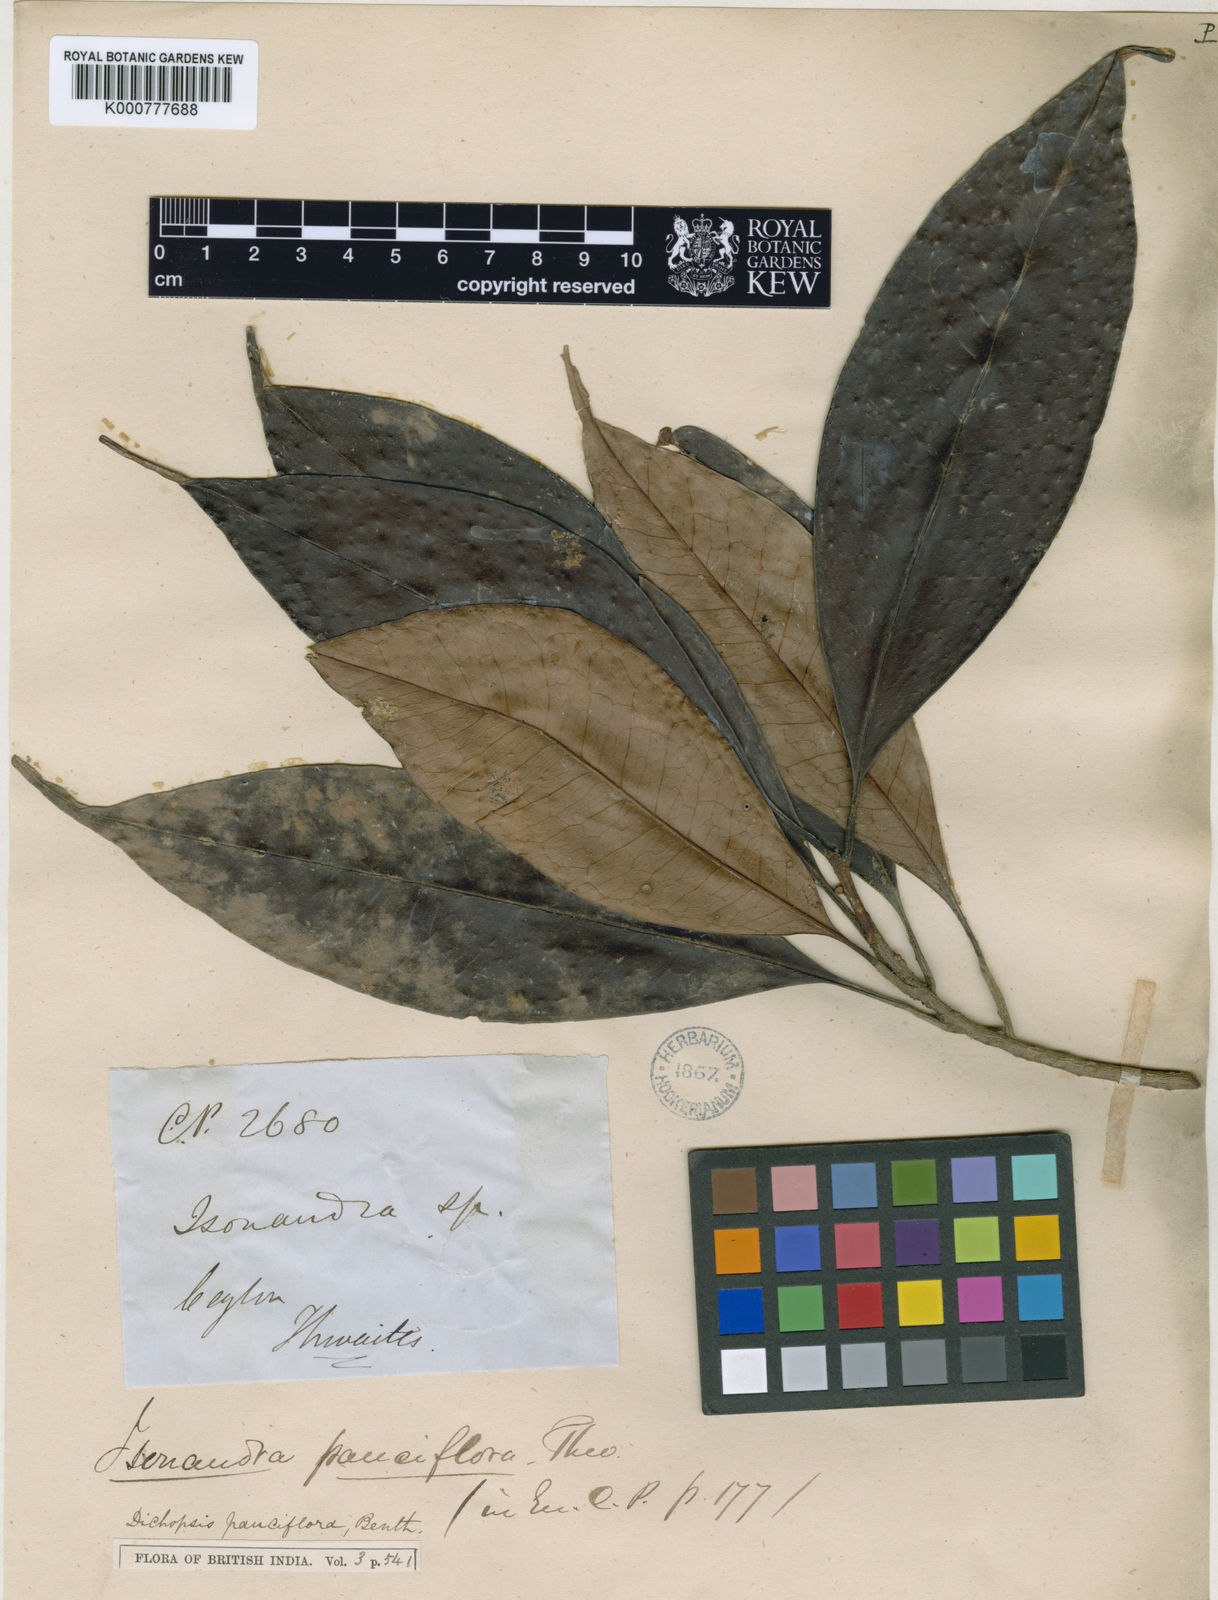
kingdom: Plantae
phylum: Tracheophyta
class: Magnoliopsida
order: Ericales
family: Sapotaceae
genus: Palaquium
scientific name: Palaquium pauciflorum
